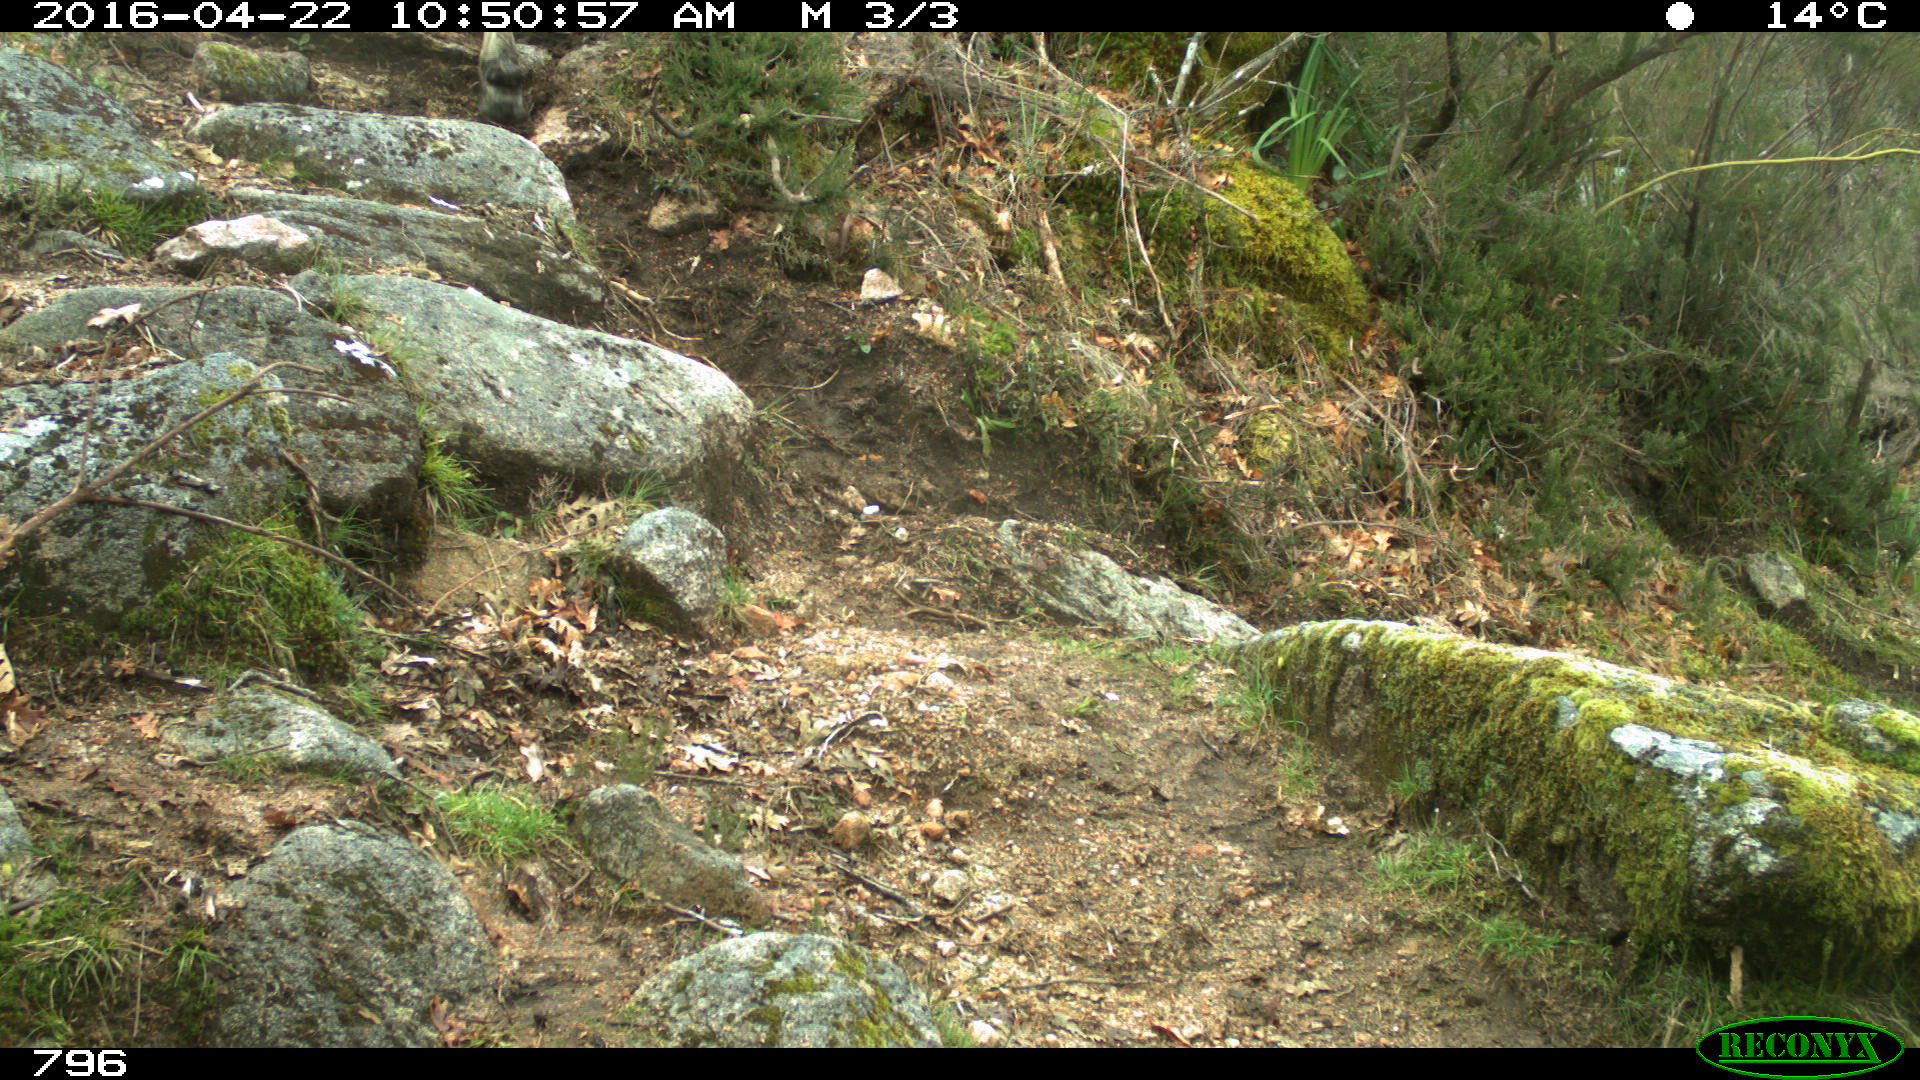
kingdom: Animalia
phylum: Chordata
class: Mammalia
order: Artiodactyla
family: Bovidae
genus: Bos
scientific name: Bos taurus
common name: Domesticated cattle
